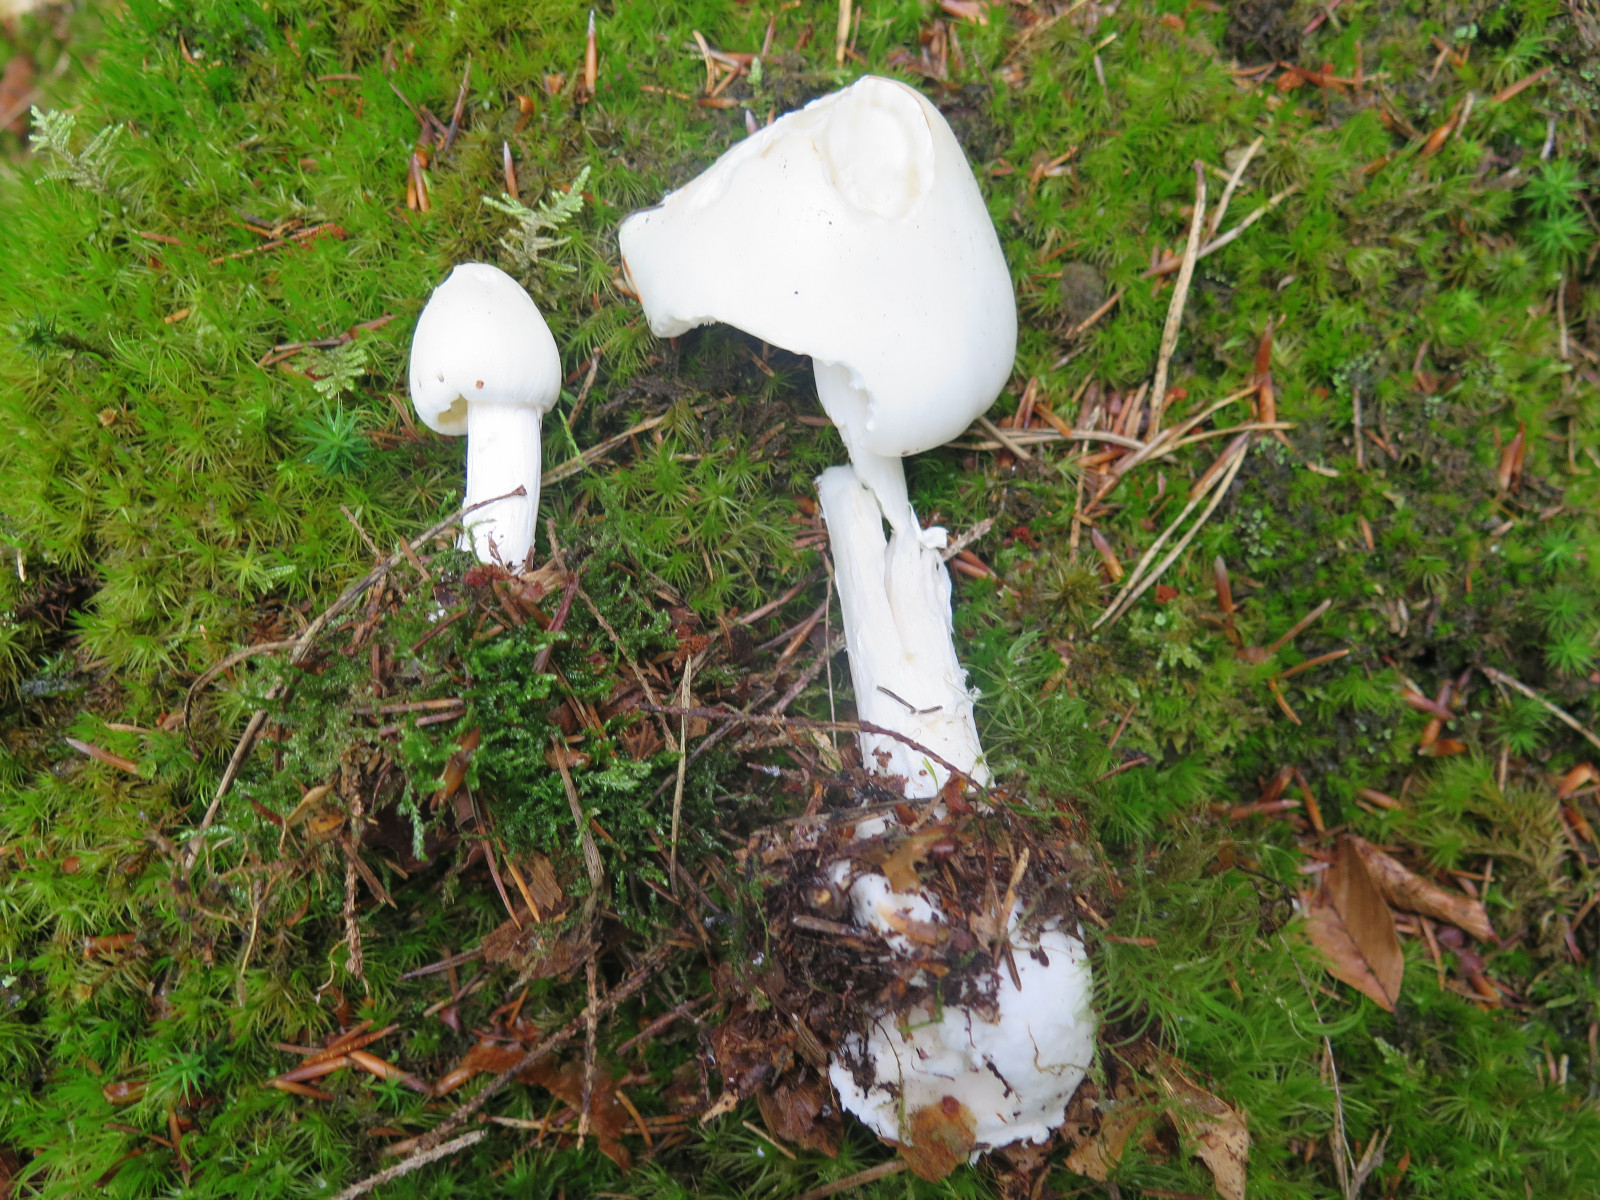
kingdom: Fungi
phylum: Basidiomycota
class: Agaricomycetes
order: Agaricales
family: Amanitaceae
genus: Amanita
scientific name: Amanita virosa
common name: snehvid fluesvamp
